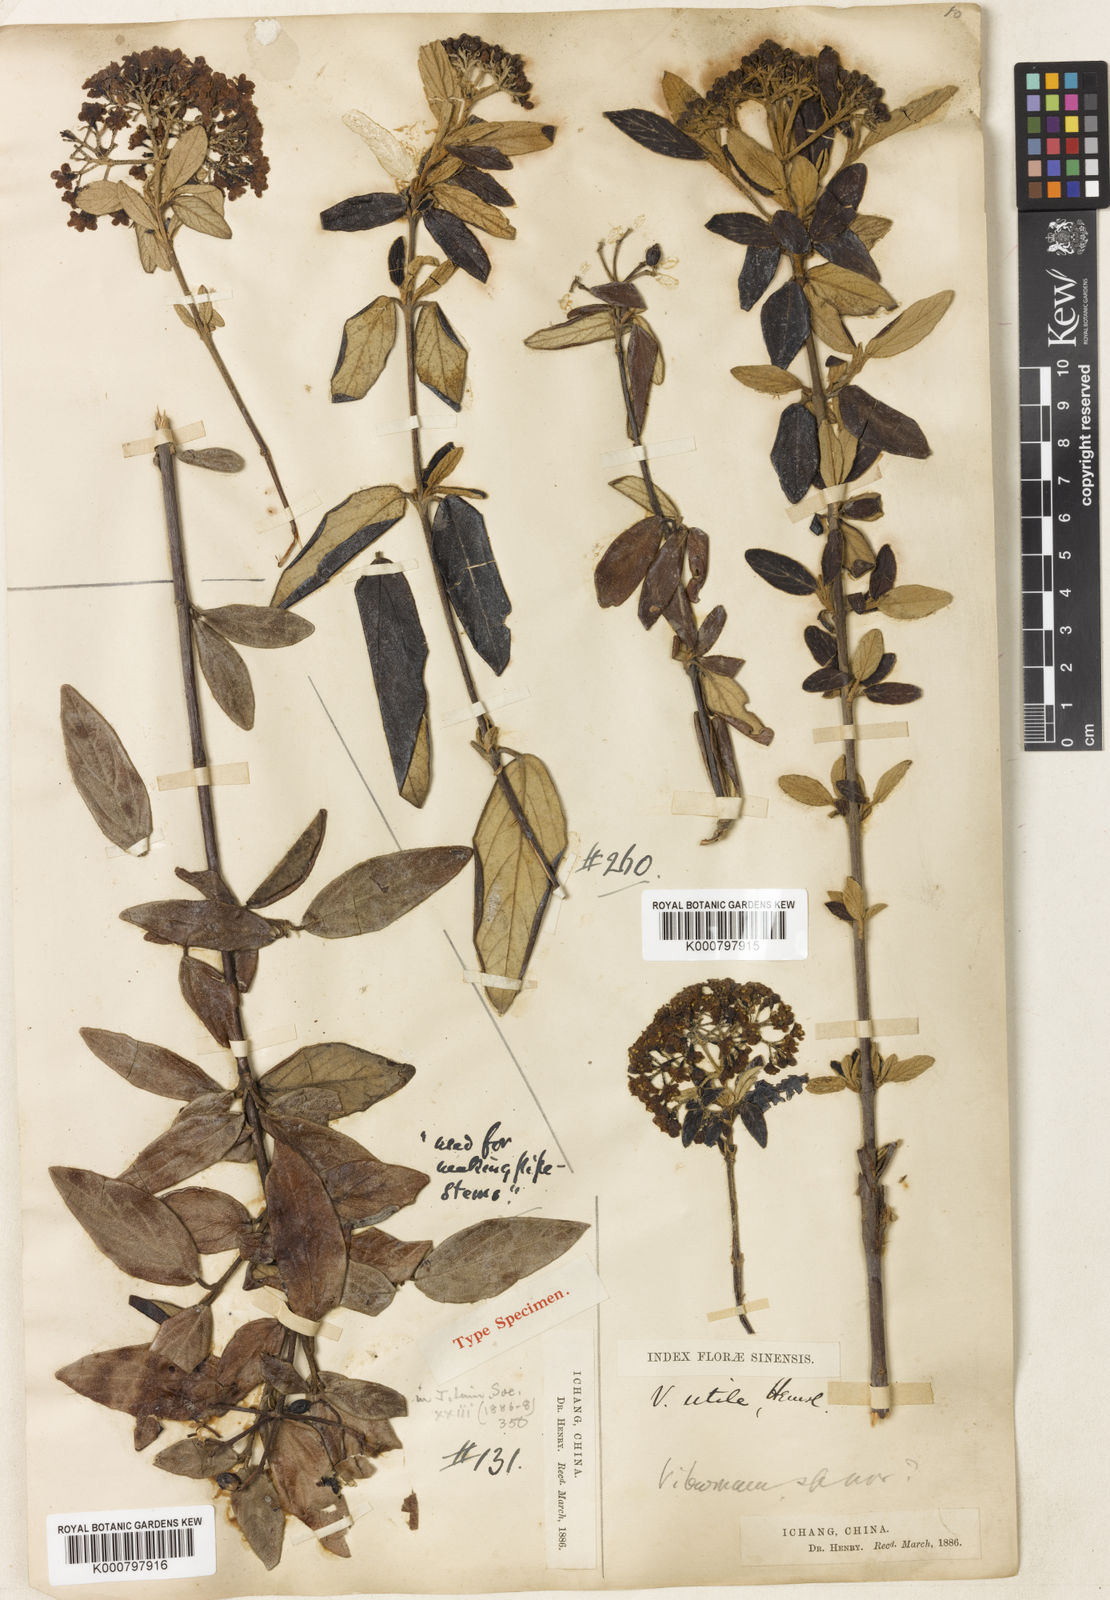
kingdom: Plantae
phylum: Tracheophyta
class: Magnoliopsida
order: Dipsacales
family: Viburnaceae
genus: Viburnum
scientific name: Viburnum utile
